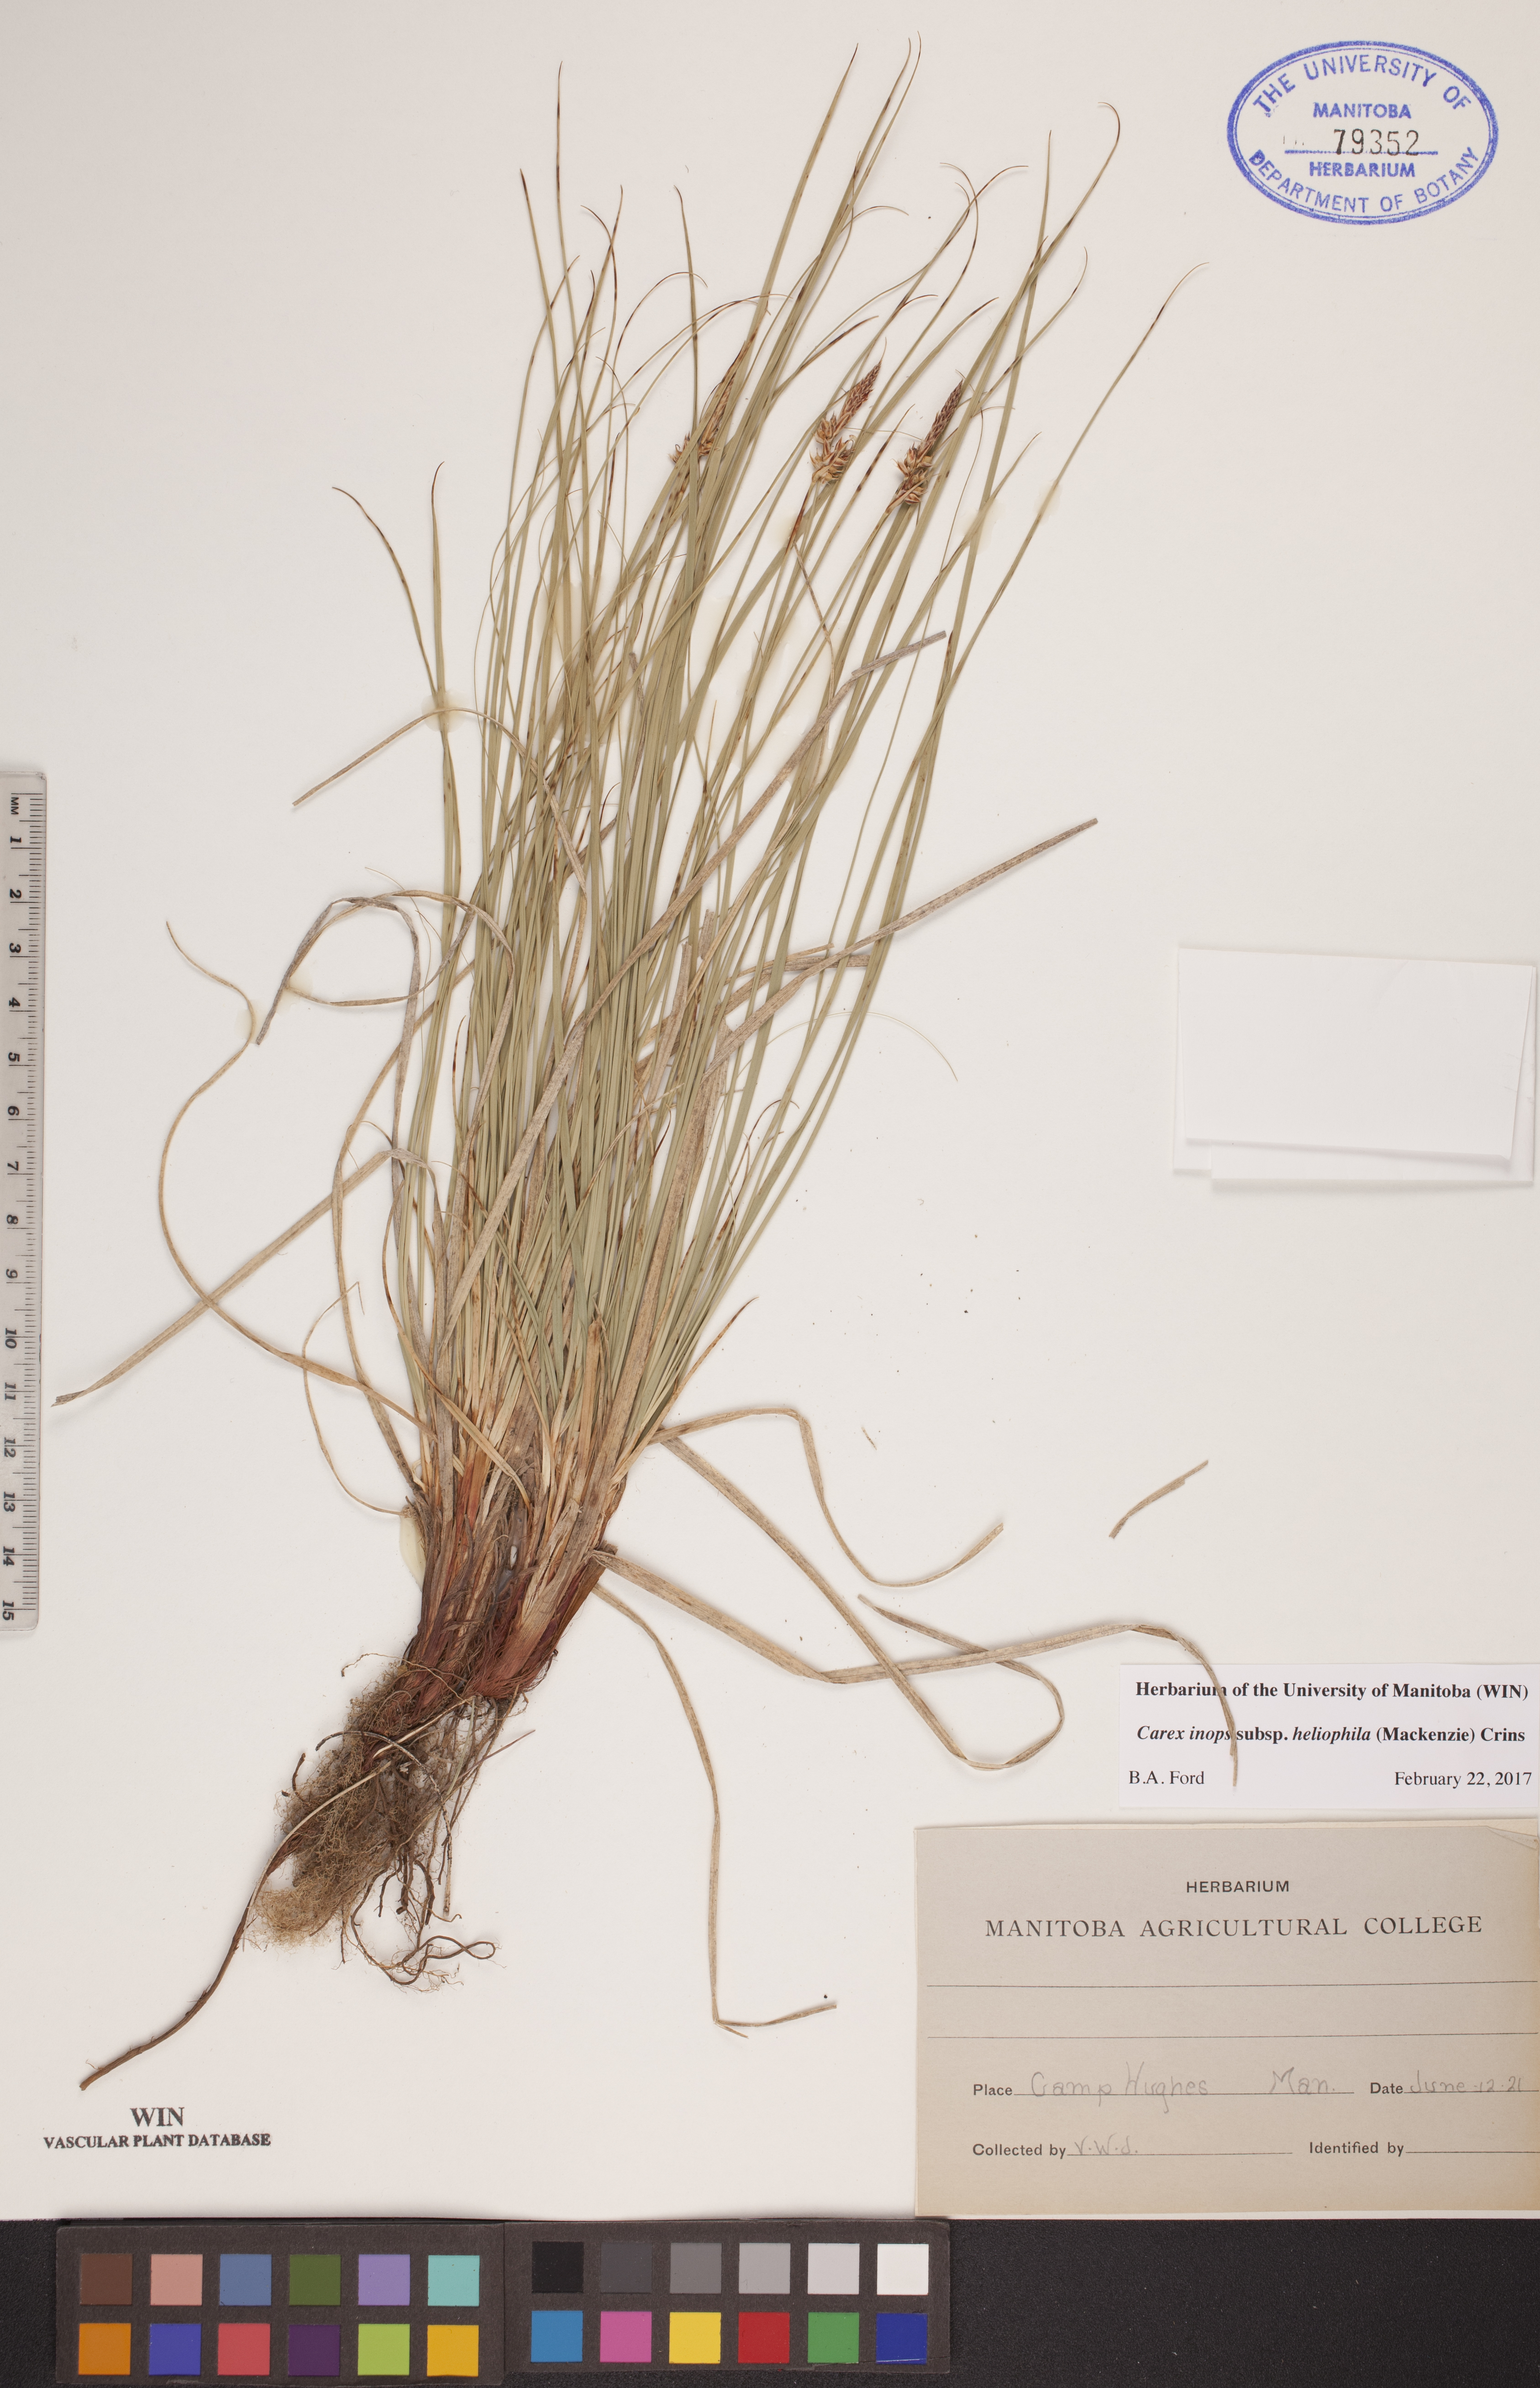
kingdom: Plantae
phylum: Tracheophyta
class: Liliopsida
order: Poales
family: Cyperaceae
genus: Carex
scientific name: Carex inops
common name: Long-stolon sedge
